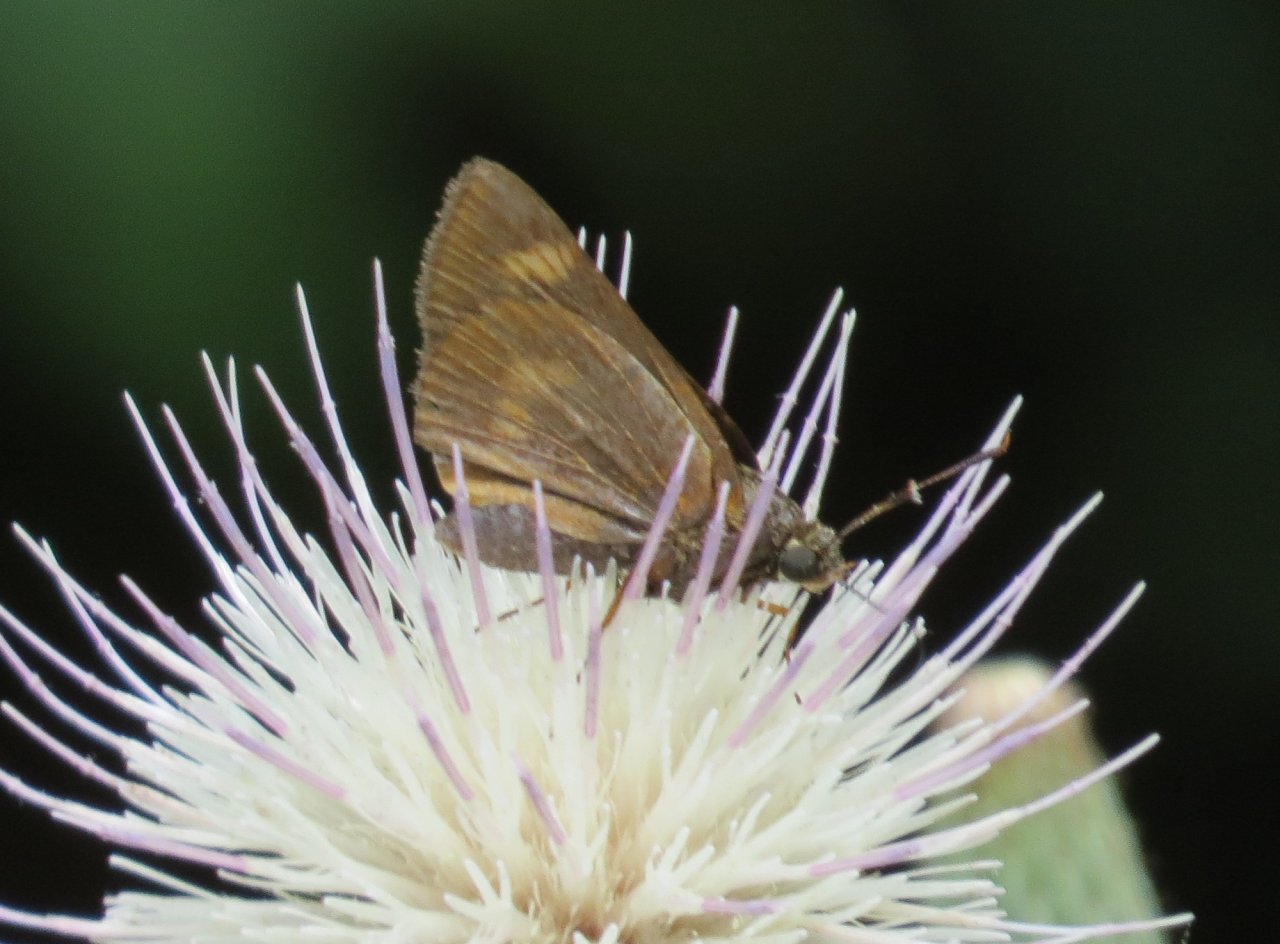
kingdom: Animalia
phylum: Arthropoda
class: Insecta
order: Lepidoptera
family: Hesperiidae
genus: Problema
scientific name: Problema byssus
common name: Byssus Skipper
